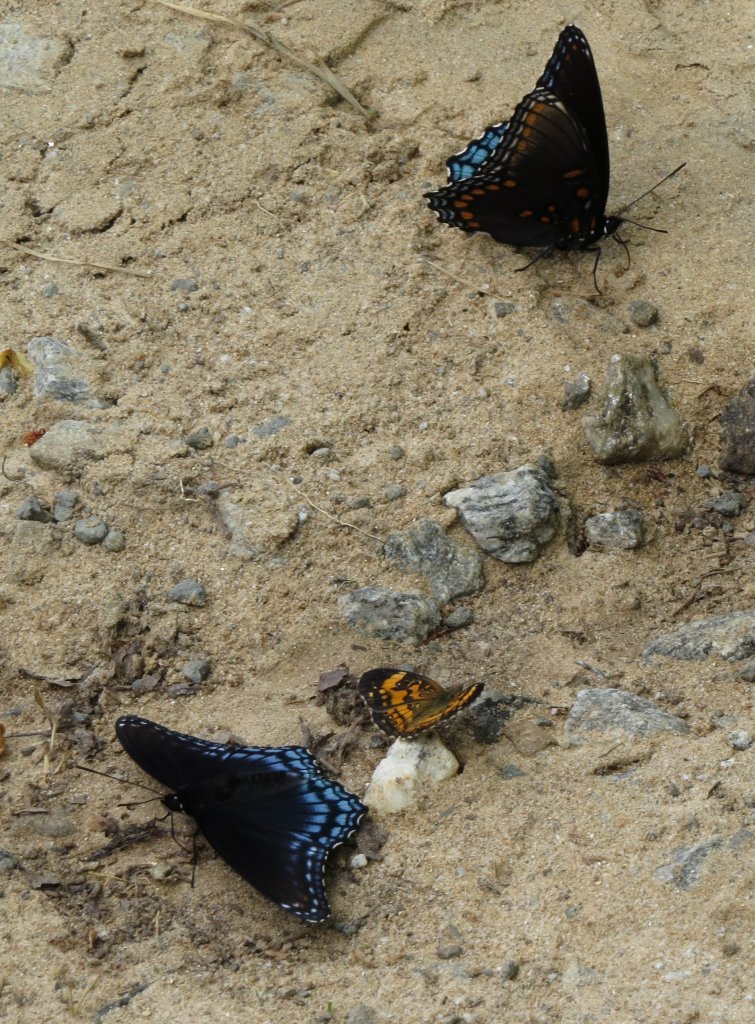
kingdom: Animalia
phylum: Arthropoda
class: Insecta
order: Lepidoptera
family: Nymphalidae
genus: Phyciodes
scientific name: Phyciodes tharos
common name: Pearl Crescent
